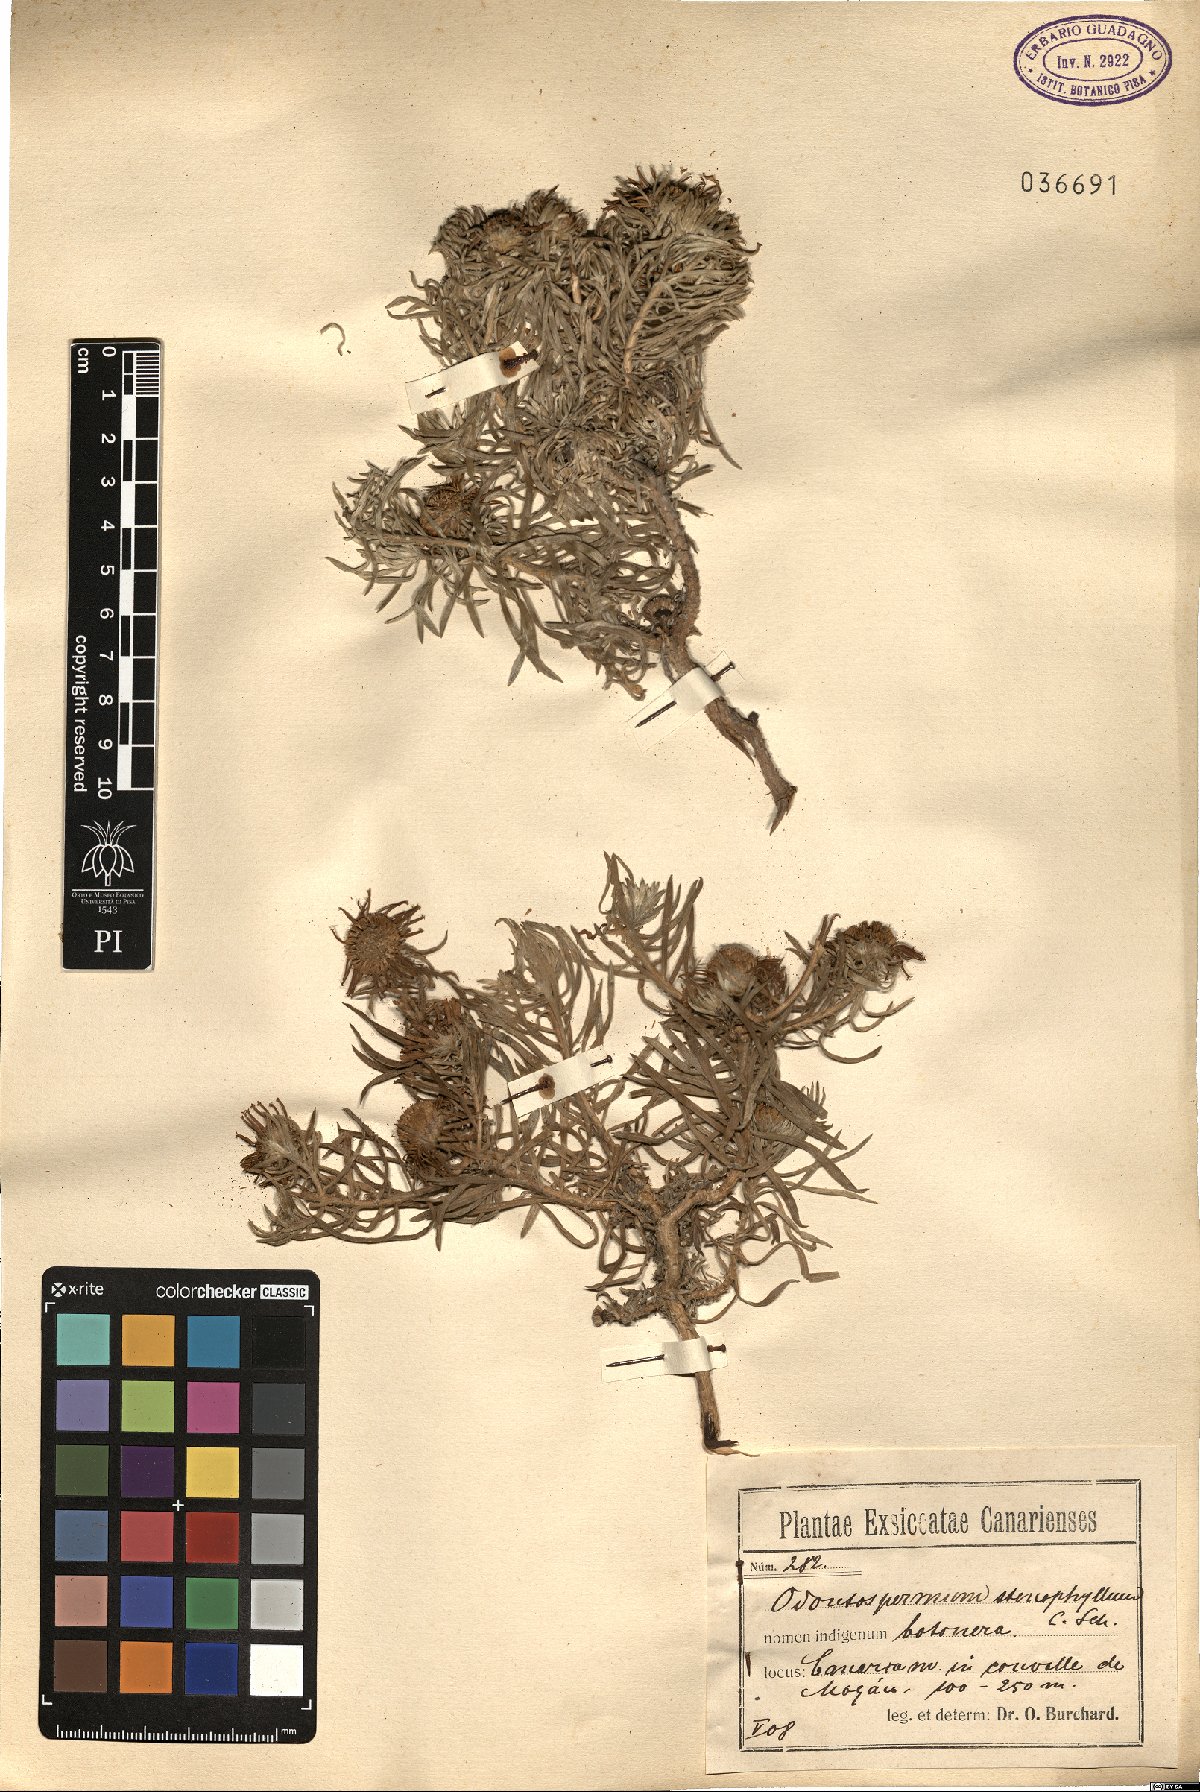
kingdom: Plantae
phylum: Tracheophyta
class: Magnoliopsida
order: Asterales
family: Asteraceae
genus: Asteriscus
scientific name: Asteriscus graveolens
